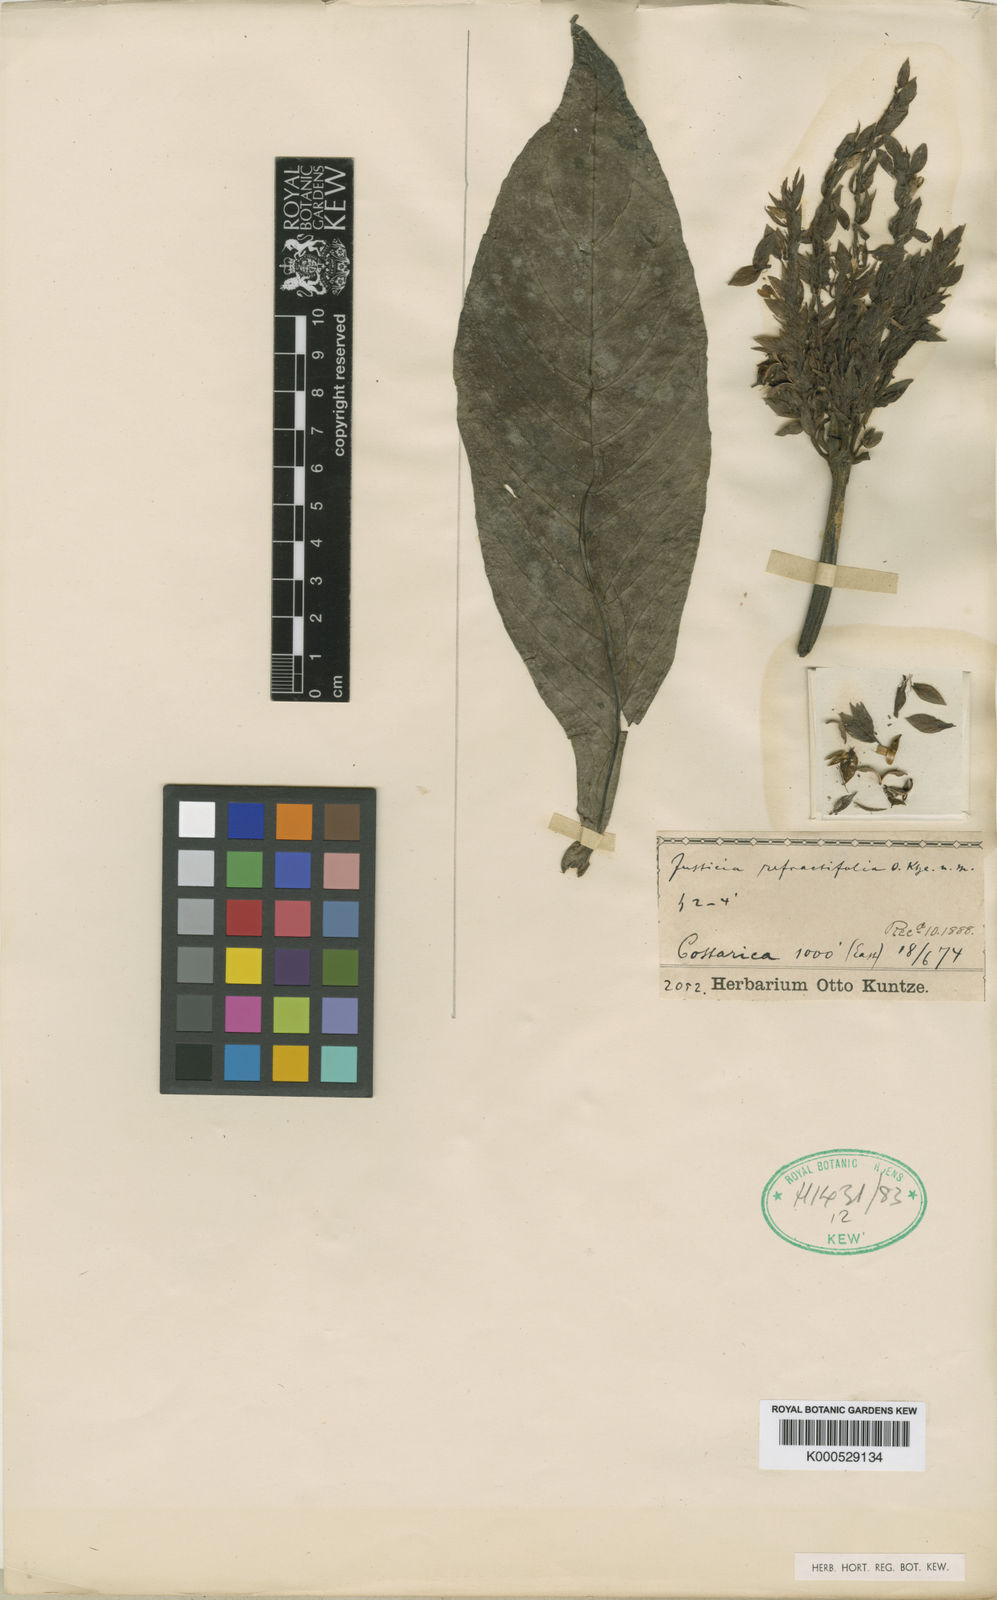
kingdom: Plantae
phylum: Tracheophyta
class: Magnoliopsida
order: Lamiales
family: Acanthaceae
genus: Justicia
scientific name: Justicia refractifolia
